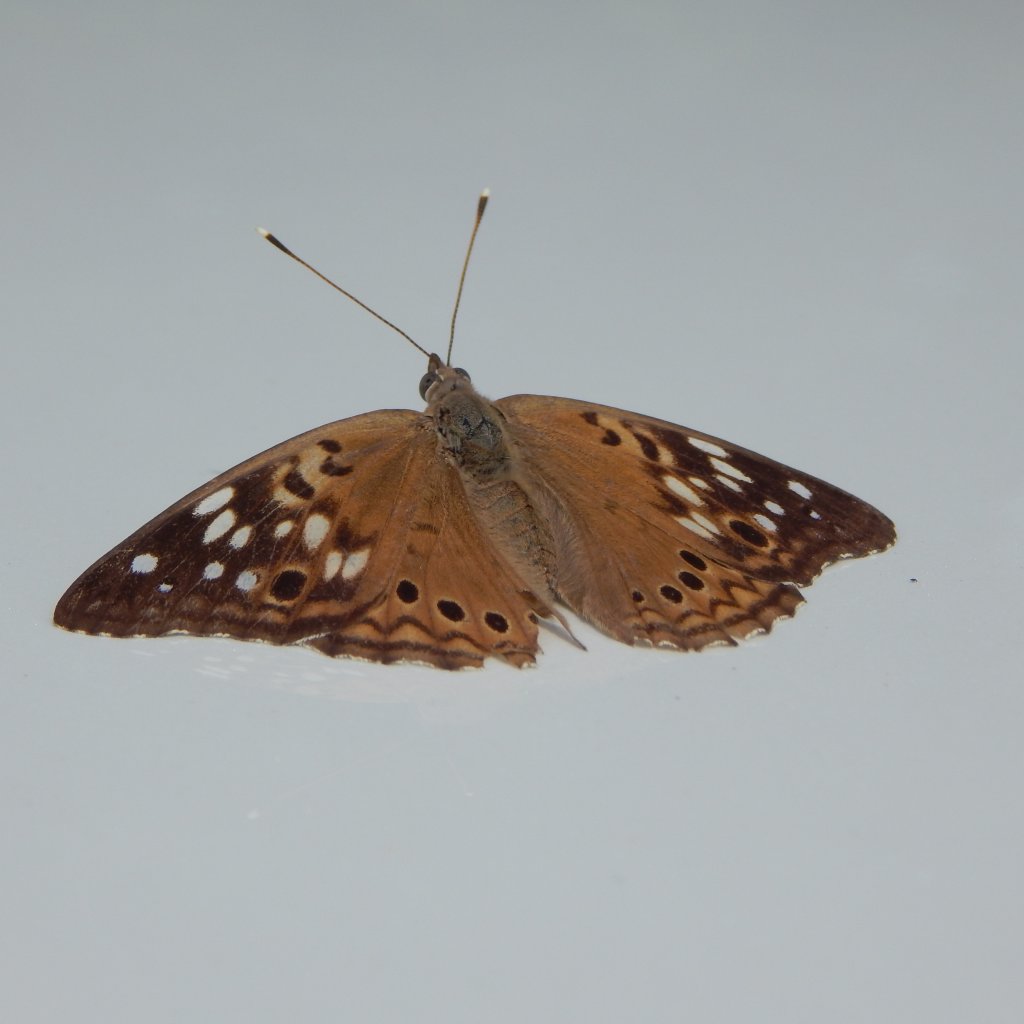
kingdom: Animalia
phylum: Arthropoda
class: Insecta
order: Lepidoptera
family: Nymphalidae
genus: Asterocampa
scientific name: Asterocampa celtis
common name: Hackberry Emperor
